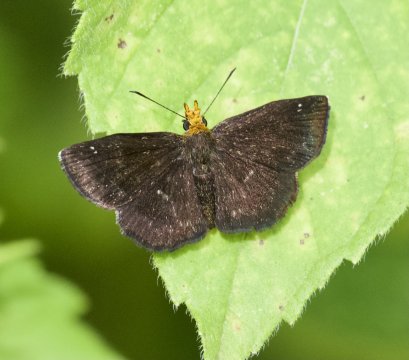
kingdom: Animalia
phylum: Arthropoda
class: Insecta
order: Lepidoptera
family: Hesperiidae
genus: Staphylus
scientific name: Staphylus ceos
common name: Golden-headed Scallopwing
